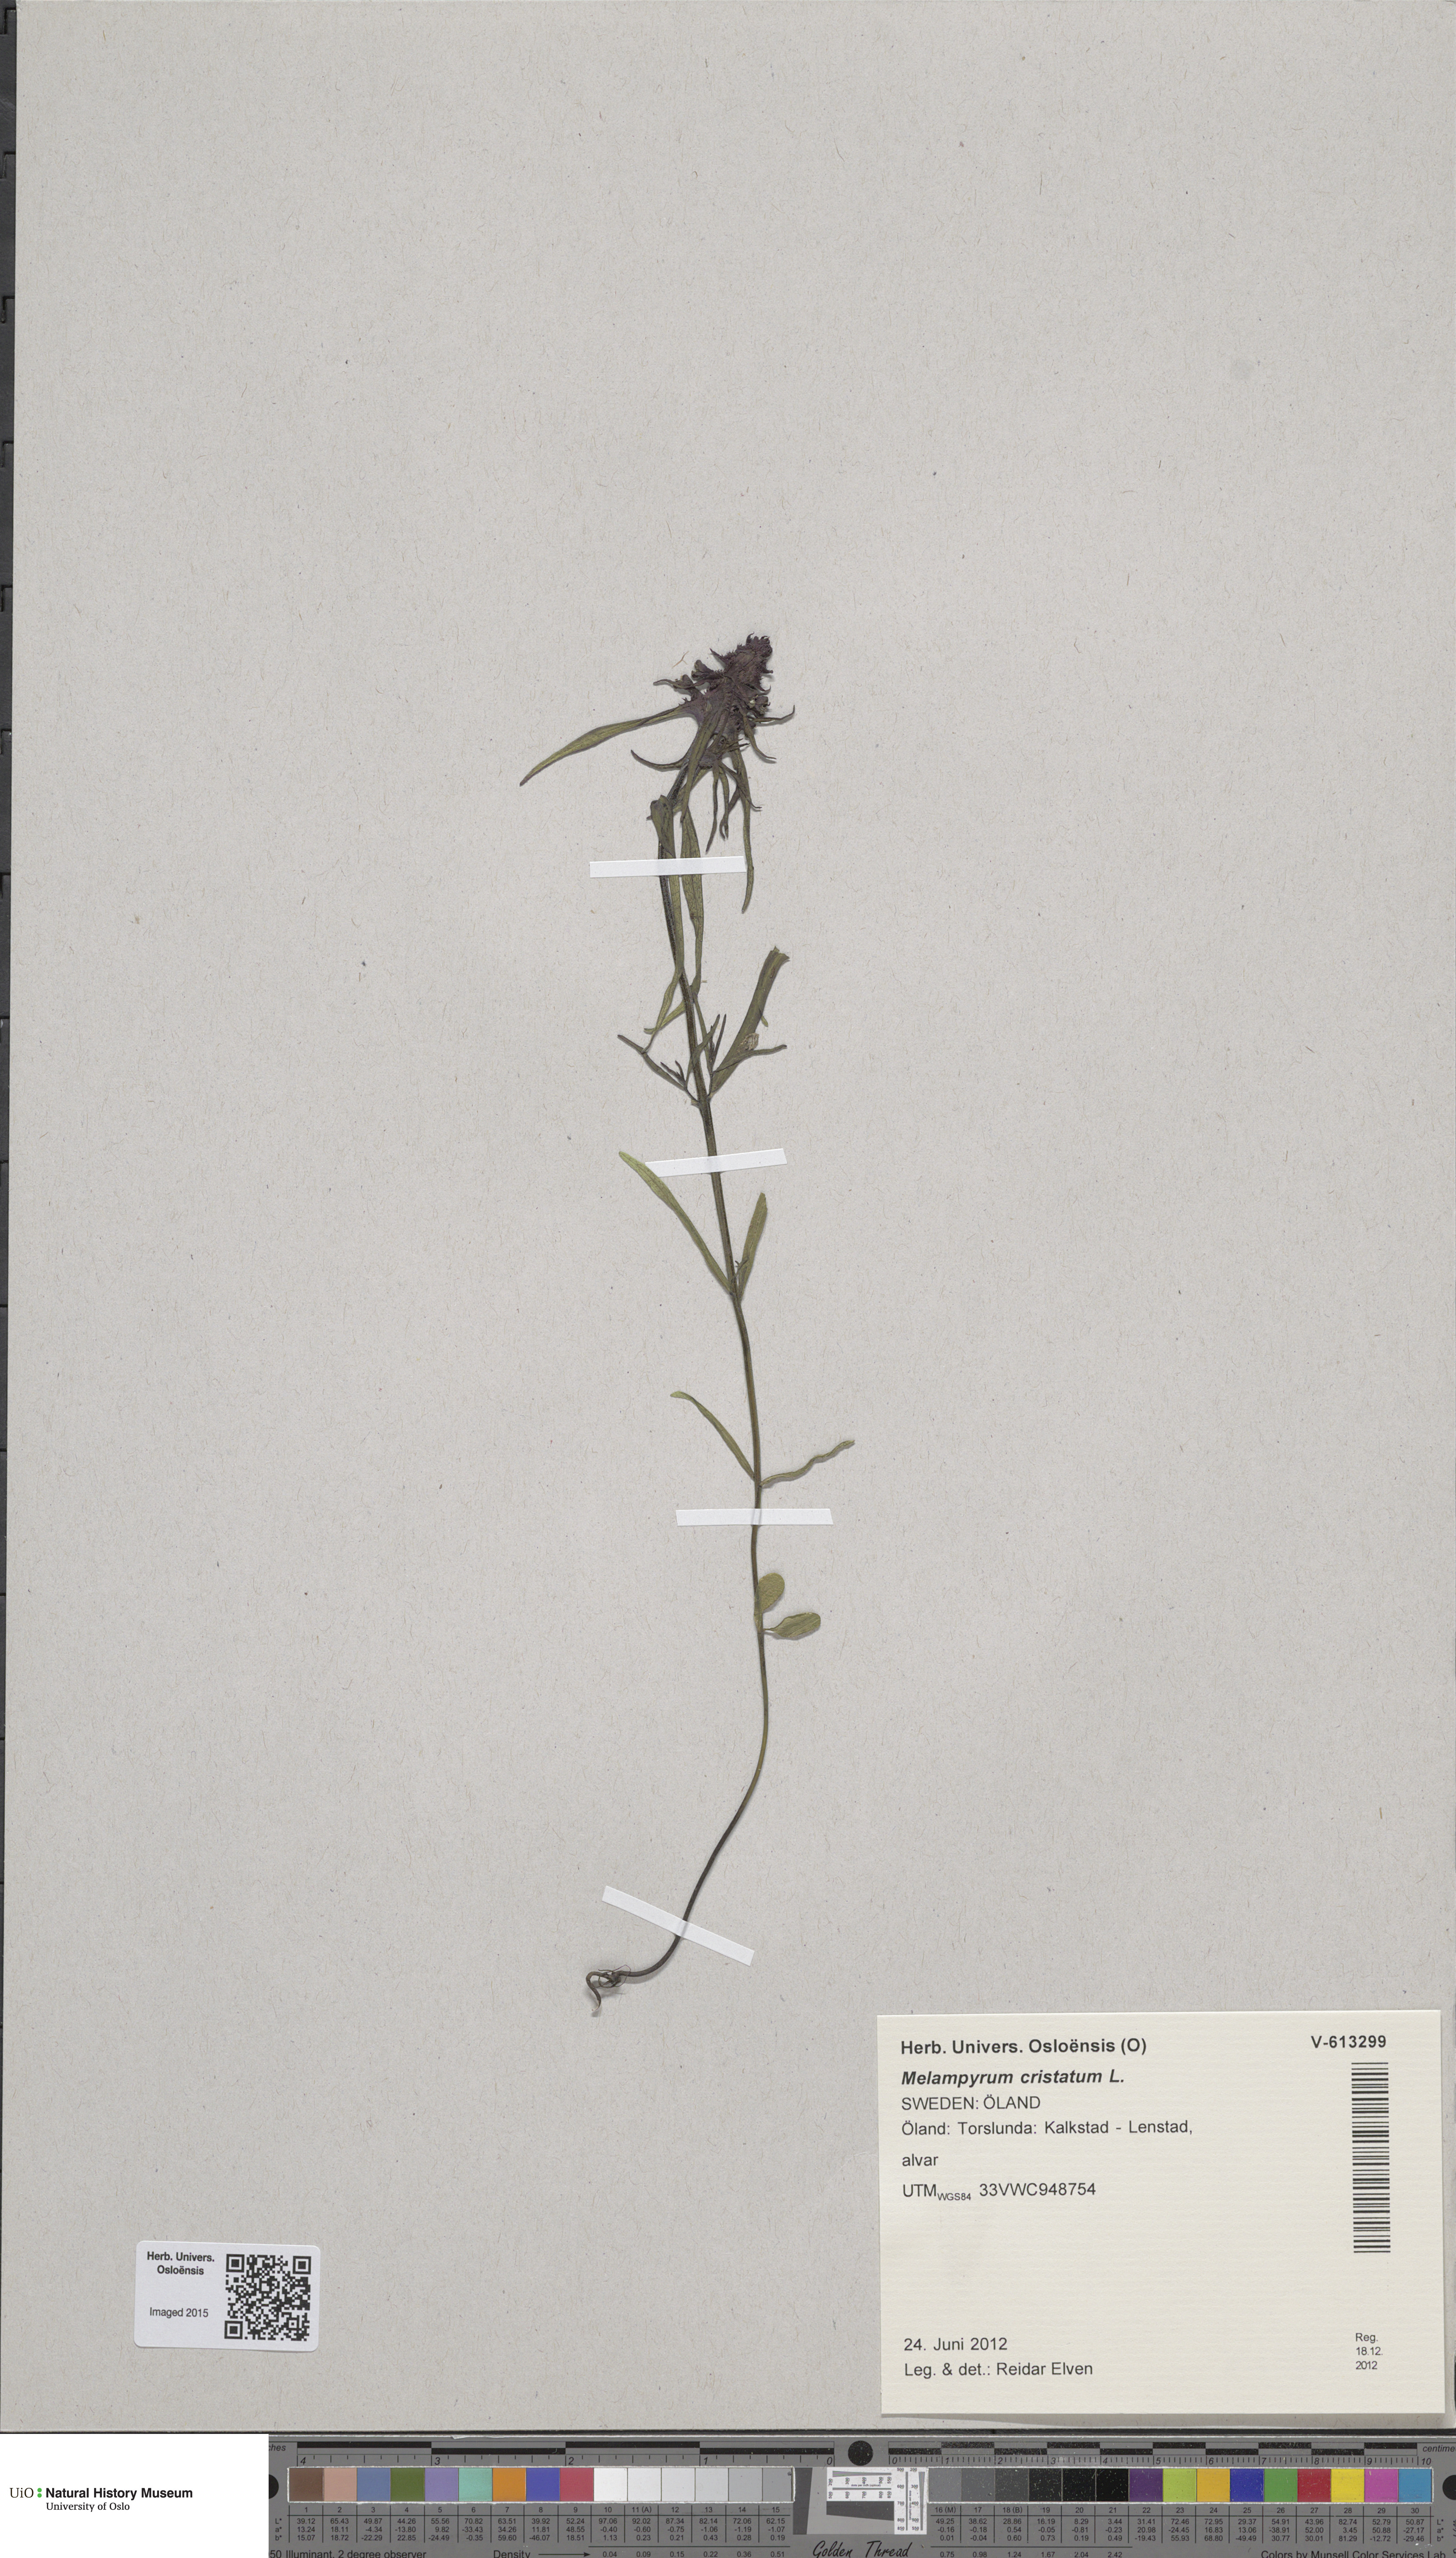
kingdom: Plantae
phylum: Tracheophyta
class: Magnoliopsida
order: Lamiales
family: Orobanchaceae
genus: Melampyrum
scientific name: Melampyrum cristatum
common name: Crested cow-wheat
